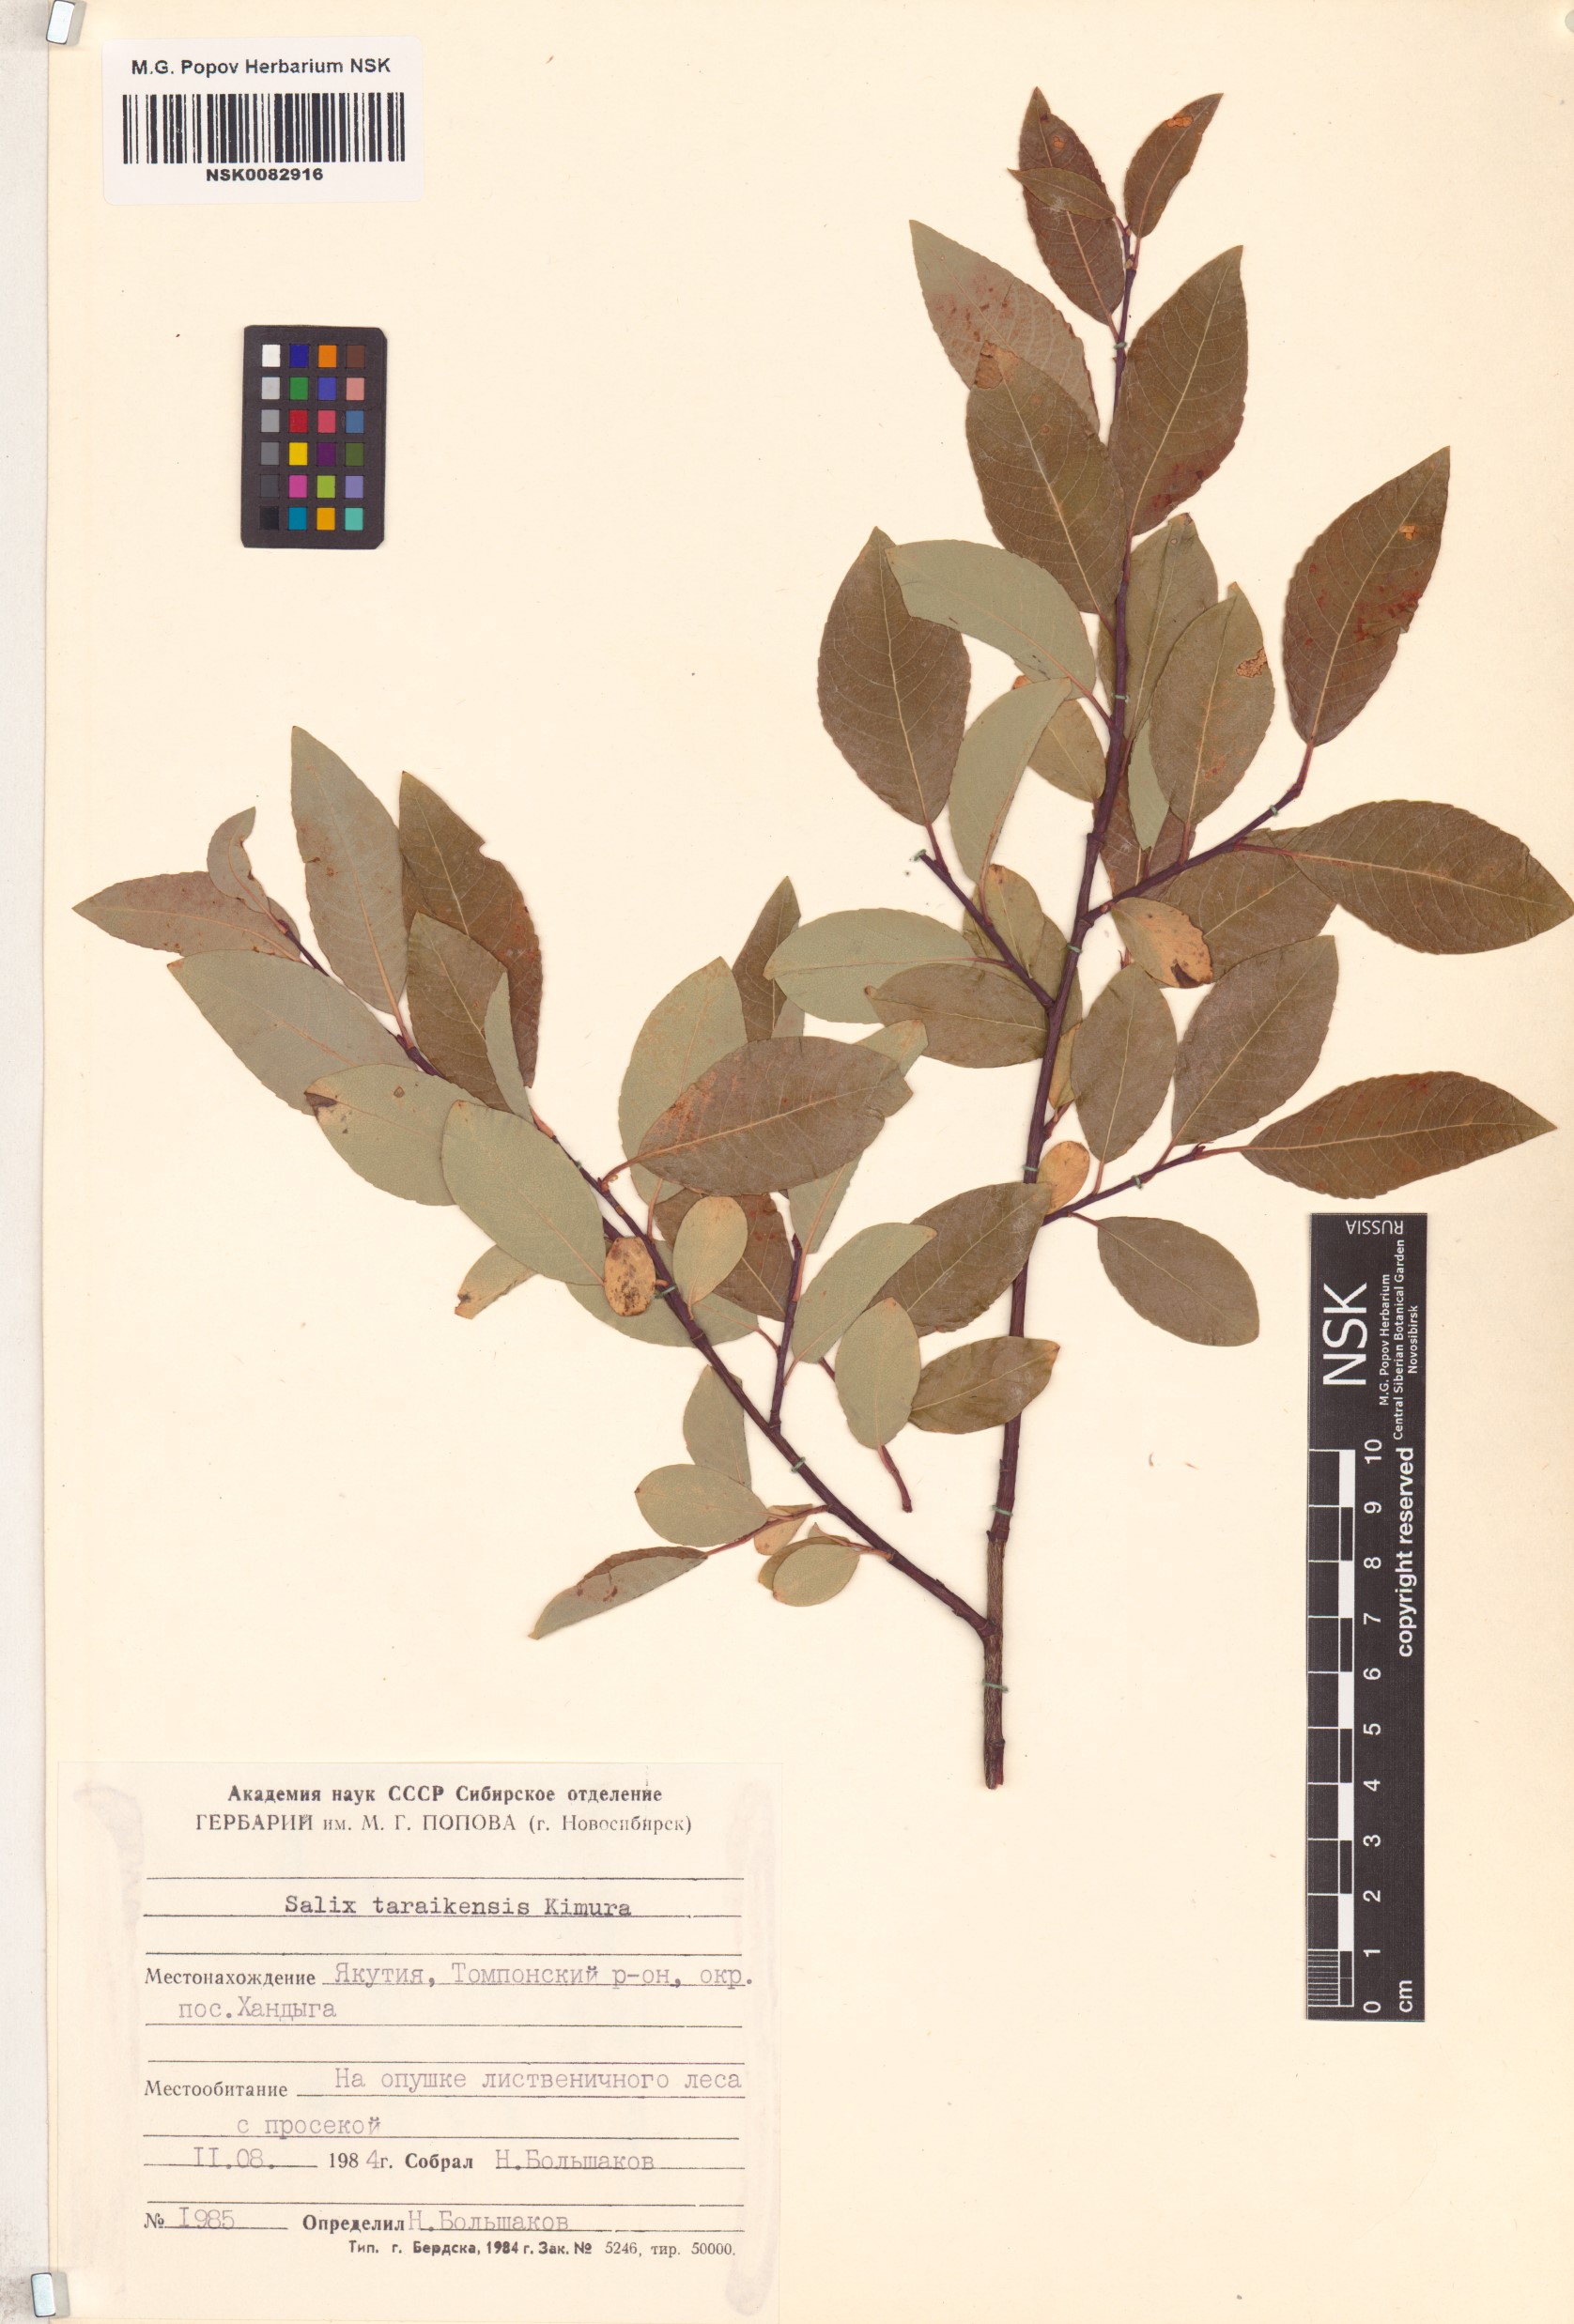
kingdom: Plantae
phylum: Tracheophyta
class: Magnoliopsida
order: Malpighiales
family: Salicaceae
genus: Salix
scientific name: Salix taraikensis
